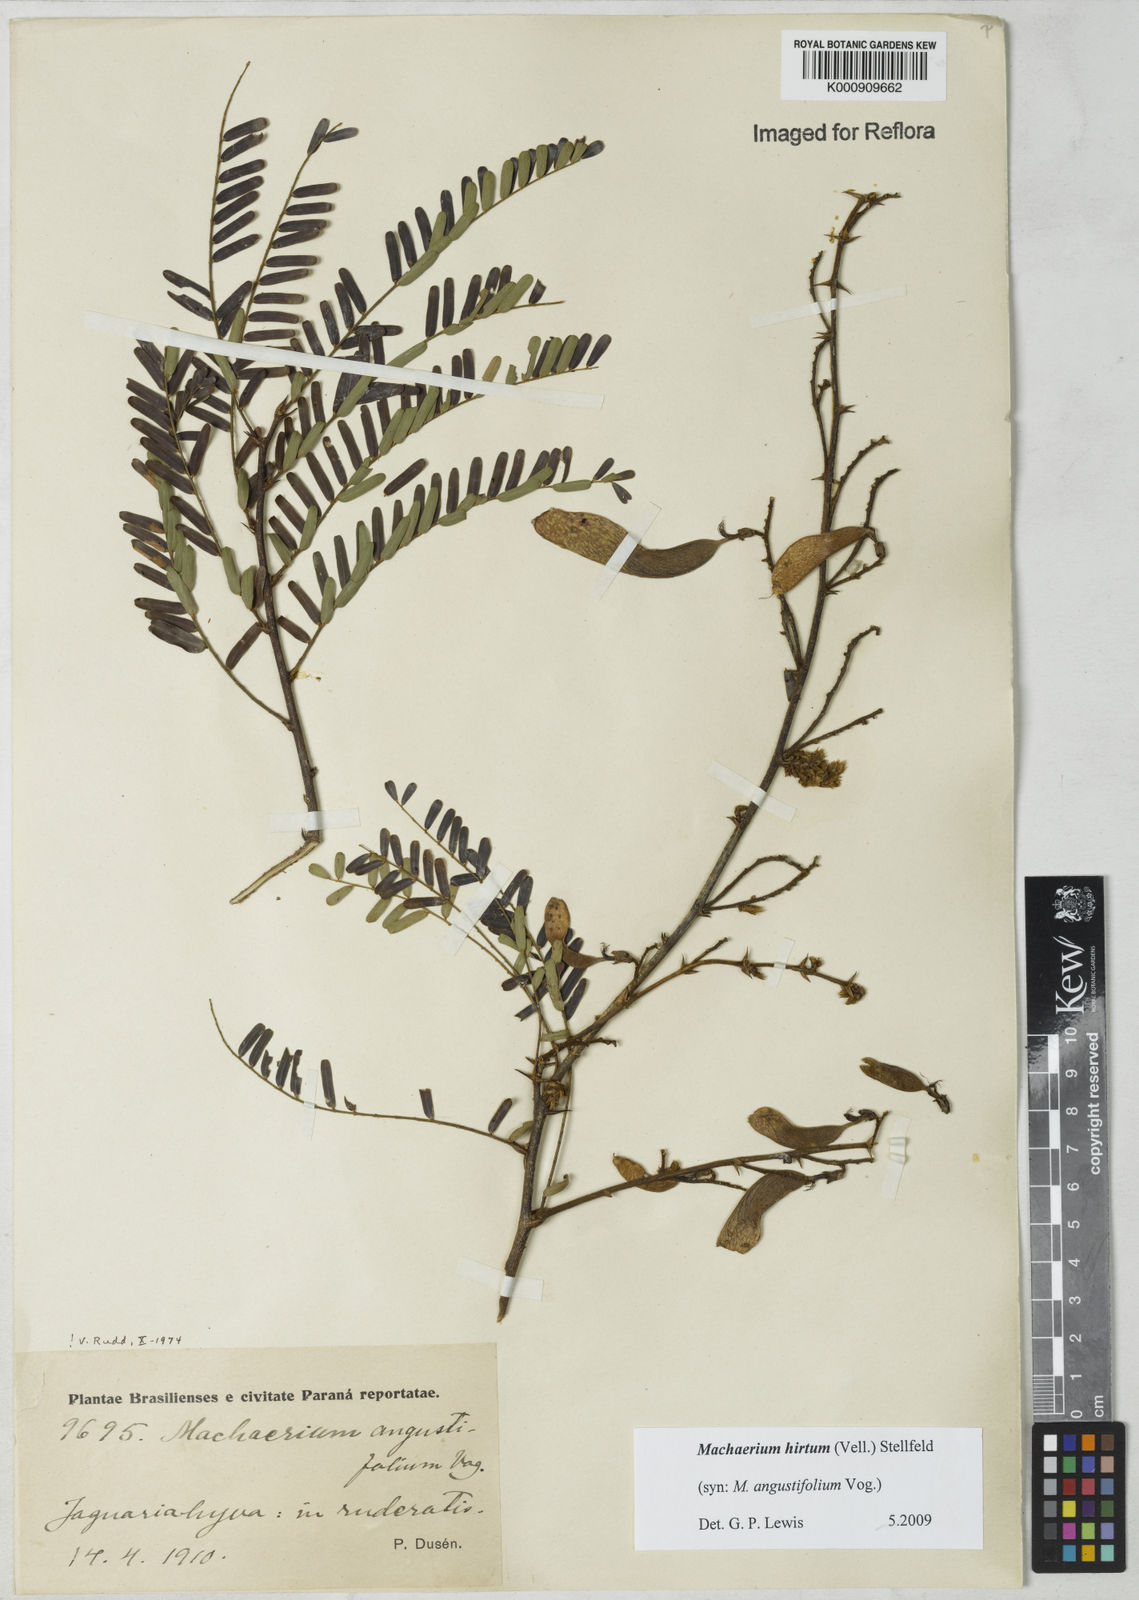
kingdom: Plantae
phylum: Tracheophyta
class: Magnoliopsida
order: Fabales
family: Fabaceae
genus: Machaerium
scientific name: Machaerium hirtum
